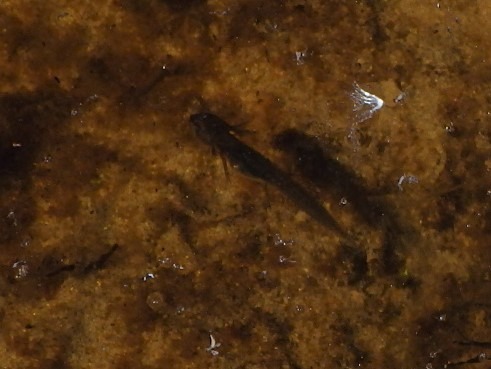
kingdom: Animalia
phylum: Chordata
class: Amphibia
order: Caudata
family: Salamandridae
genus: Lissotriton
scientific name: Lissotriton vulgaris
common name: Lille vandsalamander
